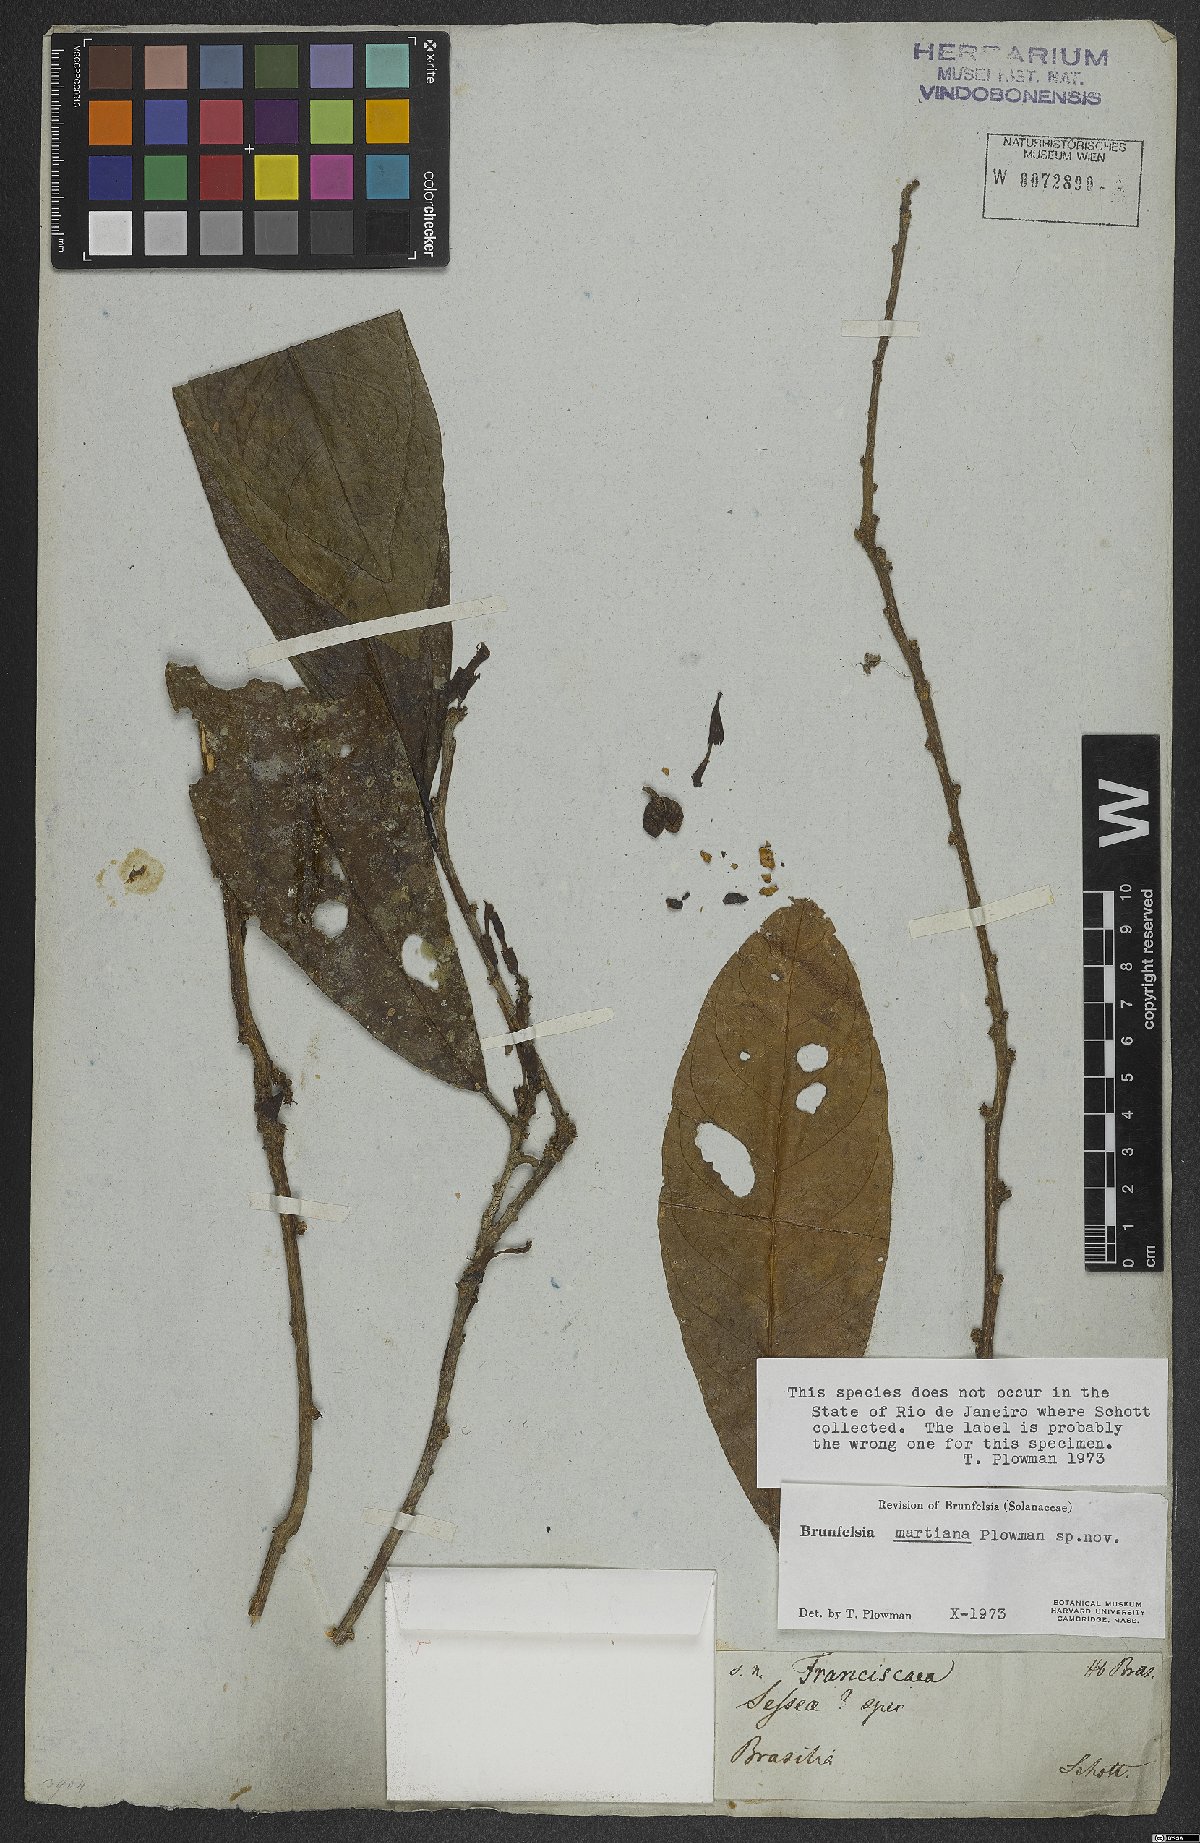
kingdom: Plantae
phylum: Tracheophyta
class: Magnoliopsida
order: Solanales
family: Solanaceae
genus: Brunfelsia
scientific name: Brunfelsia martiana
